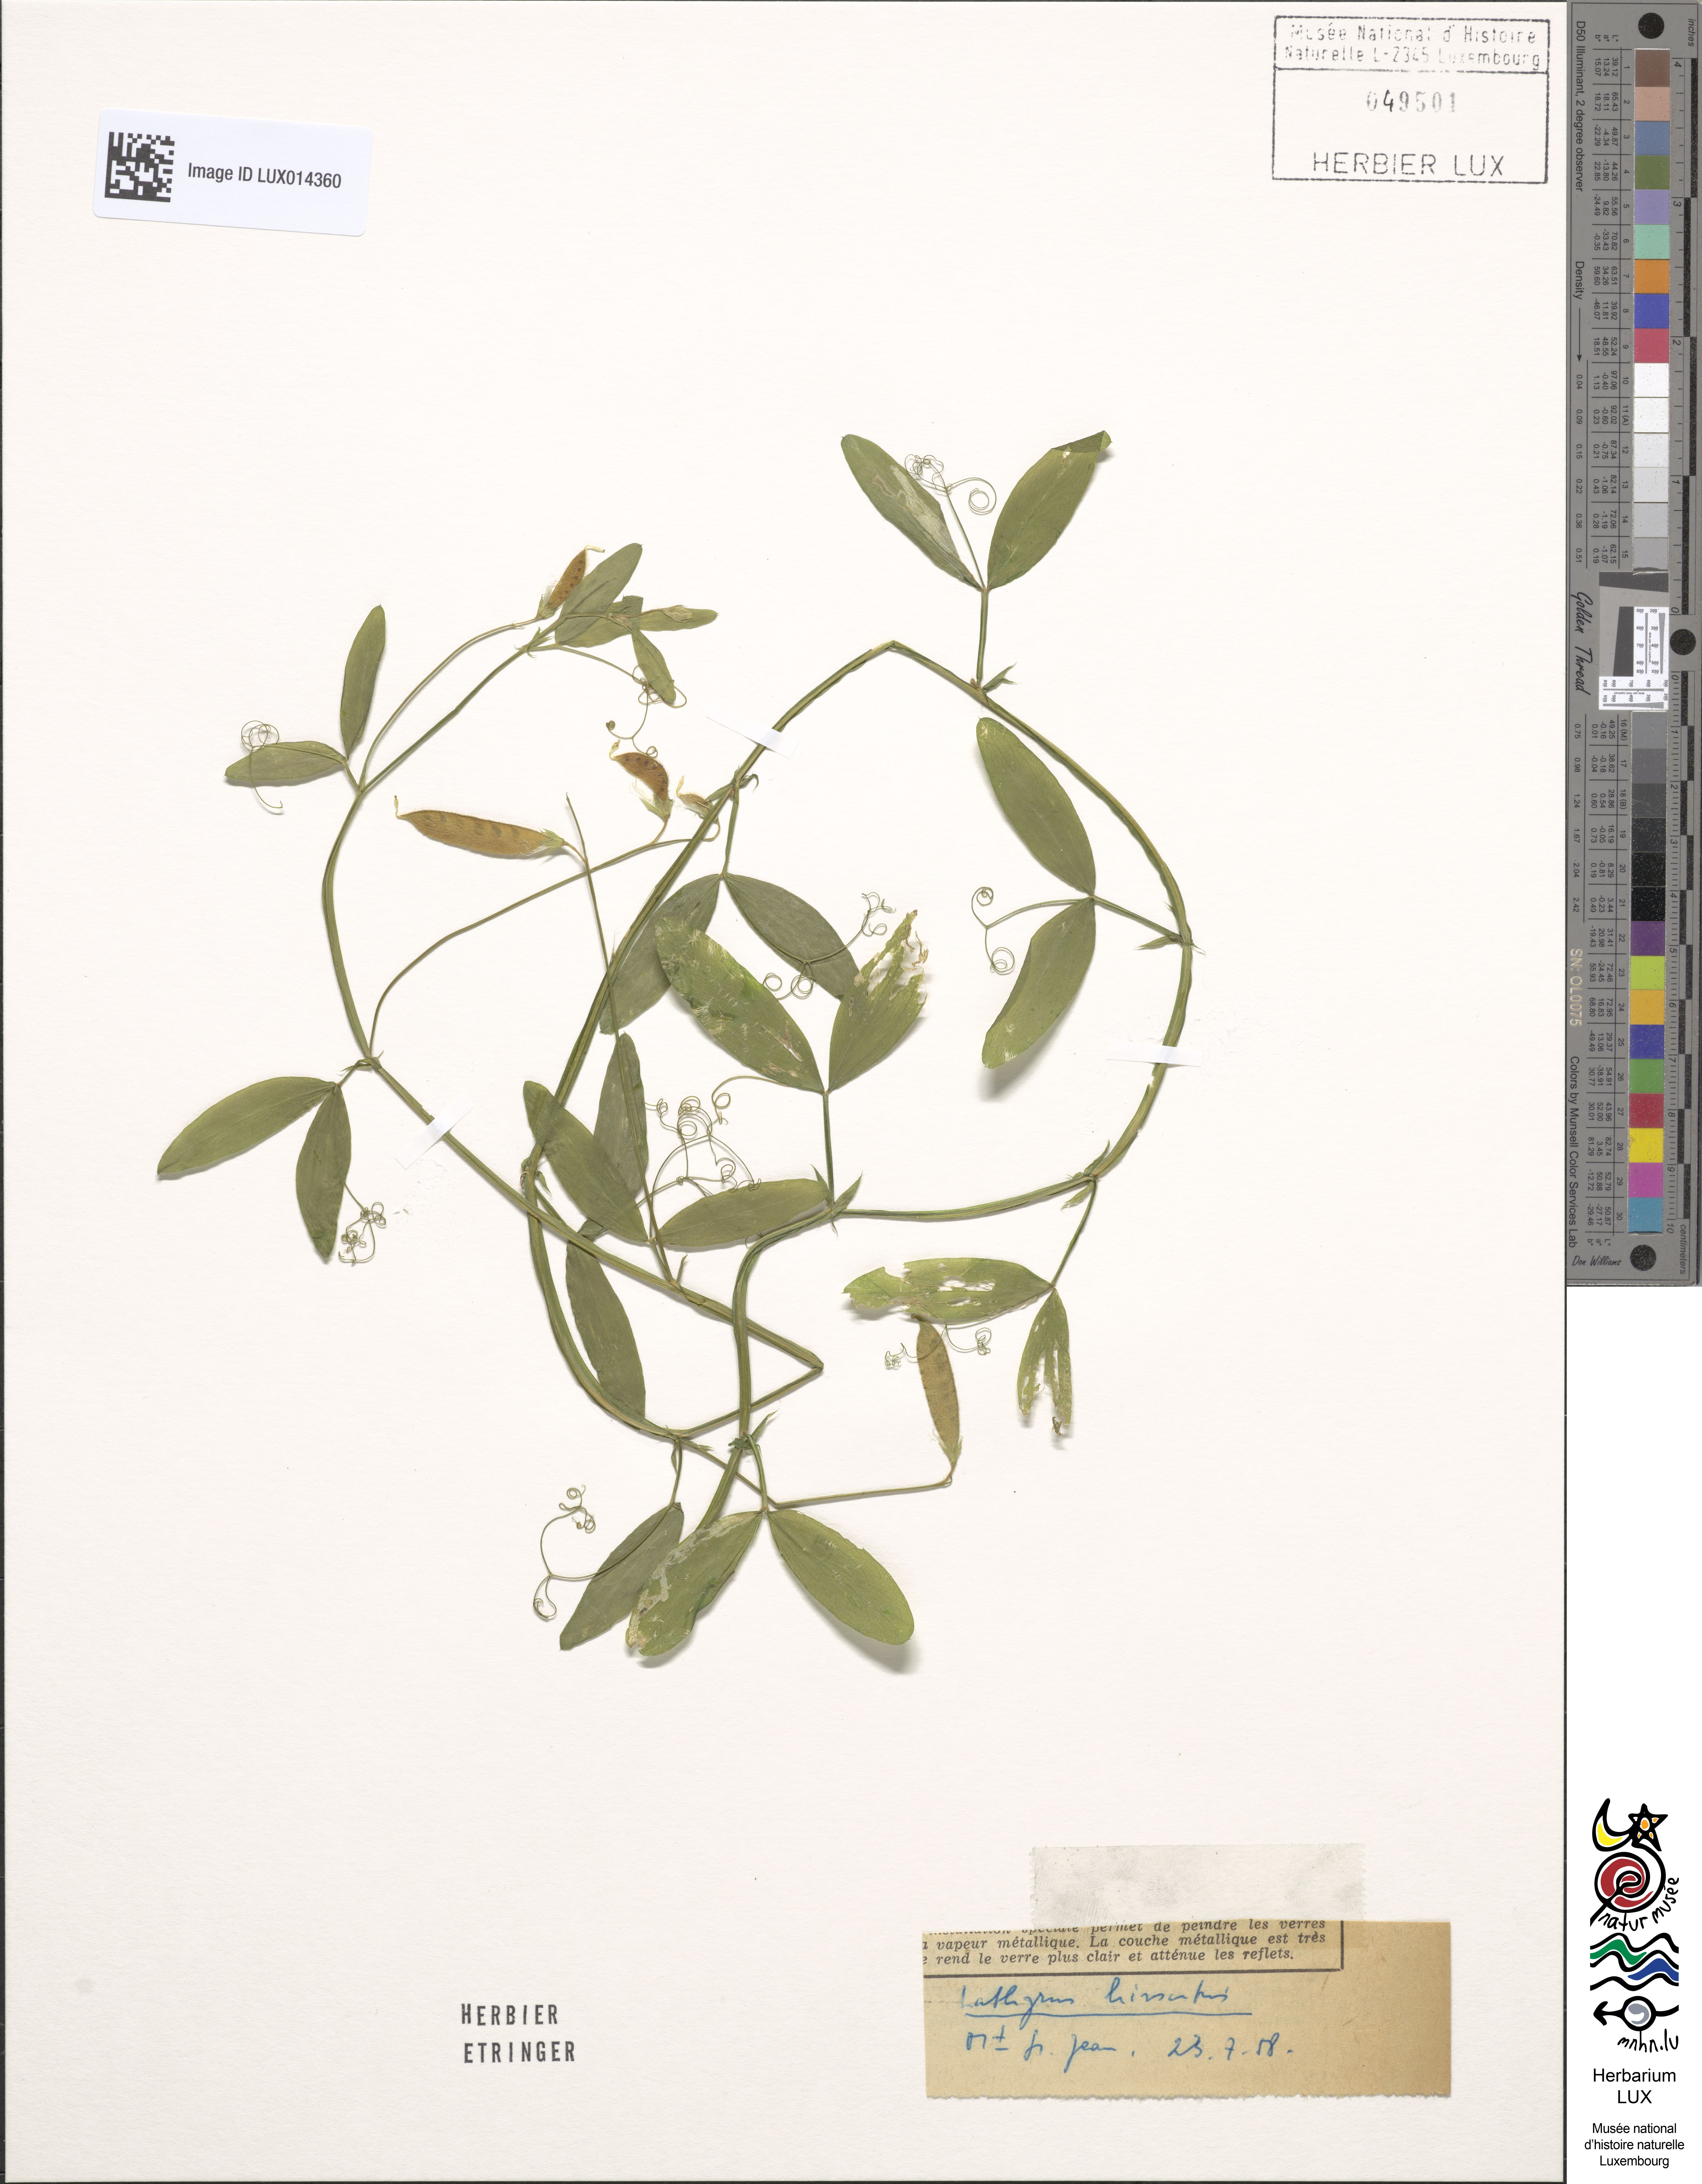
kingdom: Plantae
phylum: Tracheophyta
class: Magnoliopsida
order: Fabales
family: Fabaceae
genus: Lathyrus
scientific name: Lathyrus hirsutus
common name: Hairy vetchling
